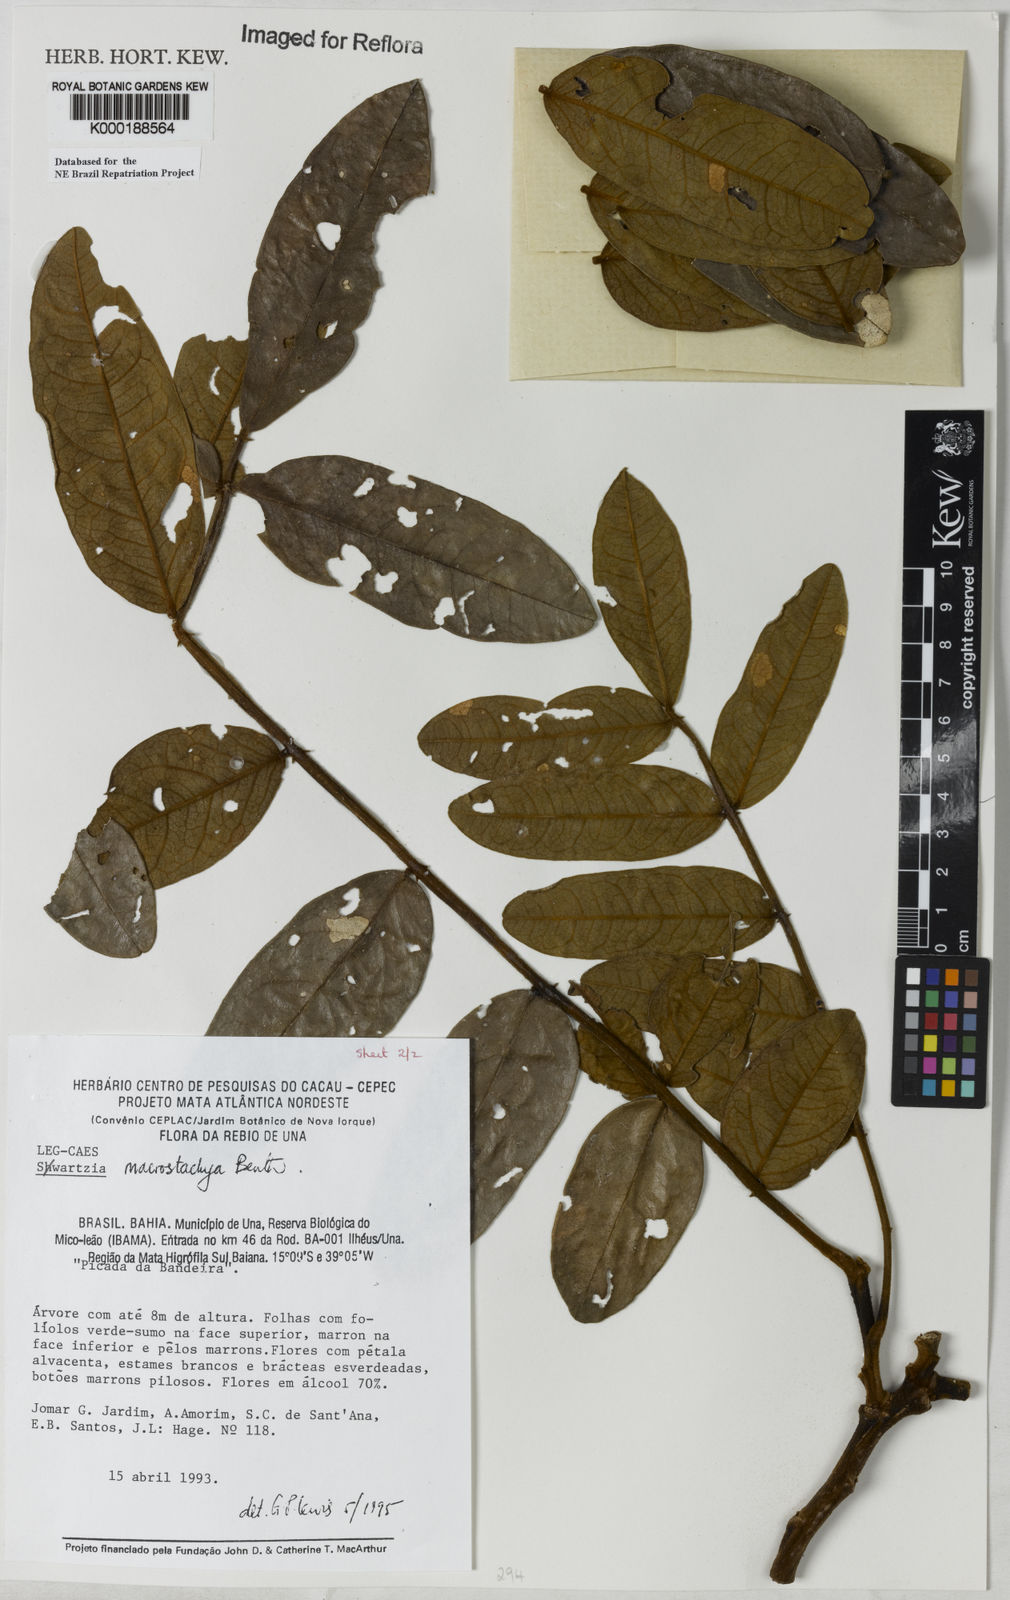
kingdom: Plantae
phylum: Tracheophyta
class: Magnoliopsida
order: Fabales
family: Fabaceae
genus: Swartzia
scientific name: Swartzia
